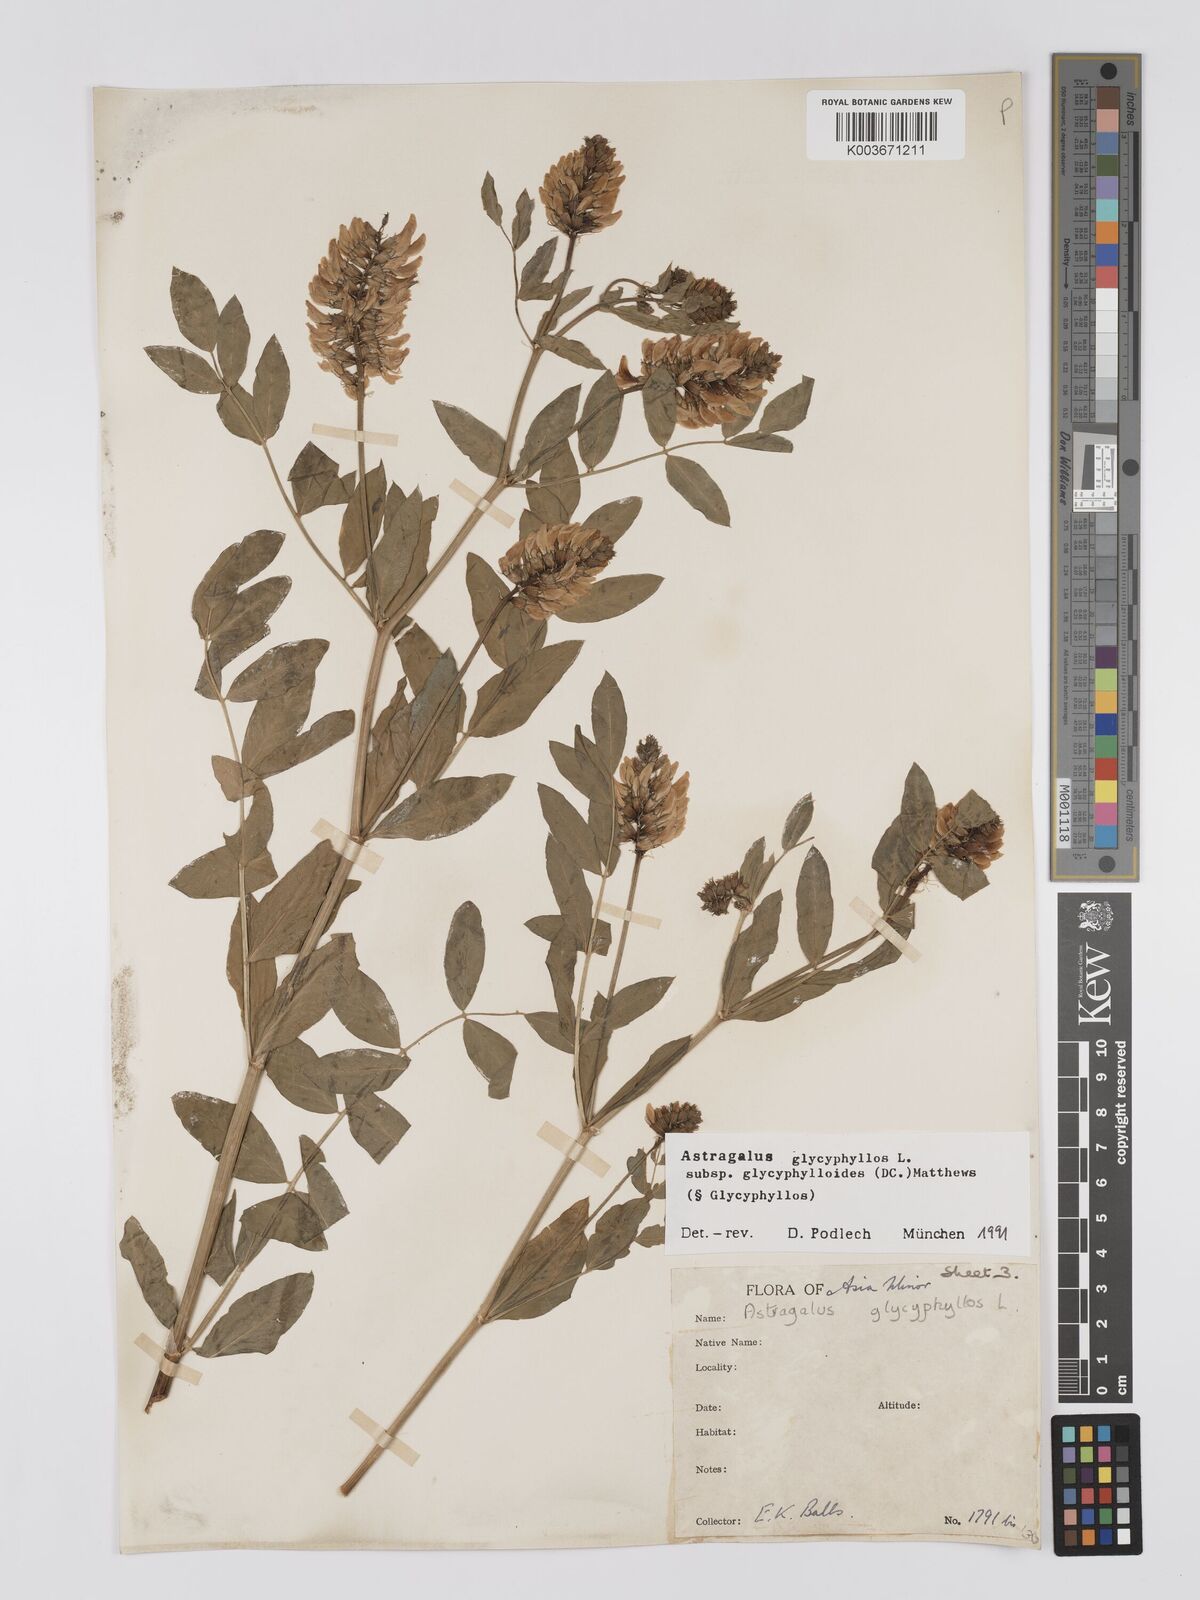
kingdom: Plantae
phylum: Tracheophyta
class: Magnoliopsida
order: Fabales
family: Fabaceae
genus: Astragalus
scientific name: Astragalus glycyphyllos
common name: Wild liquorice
